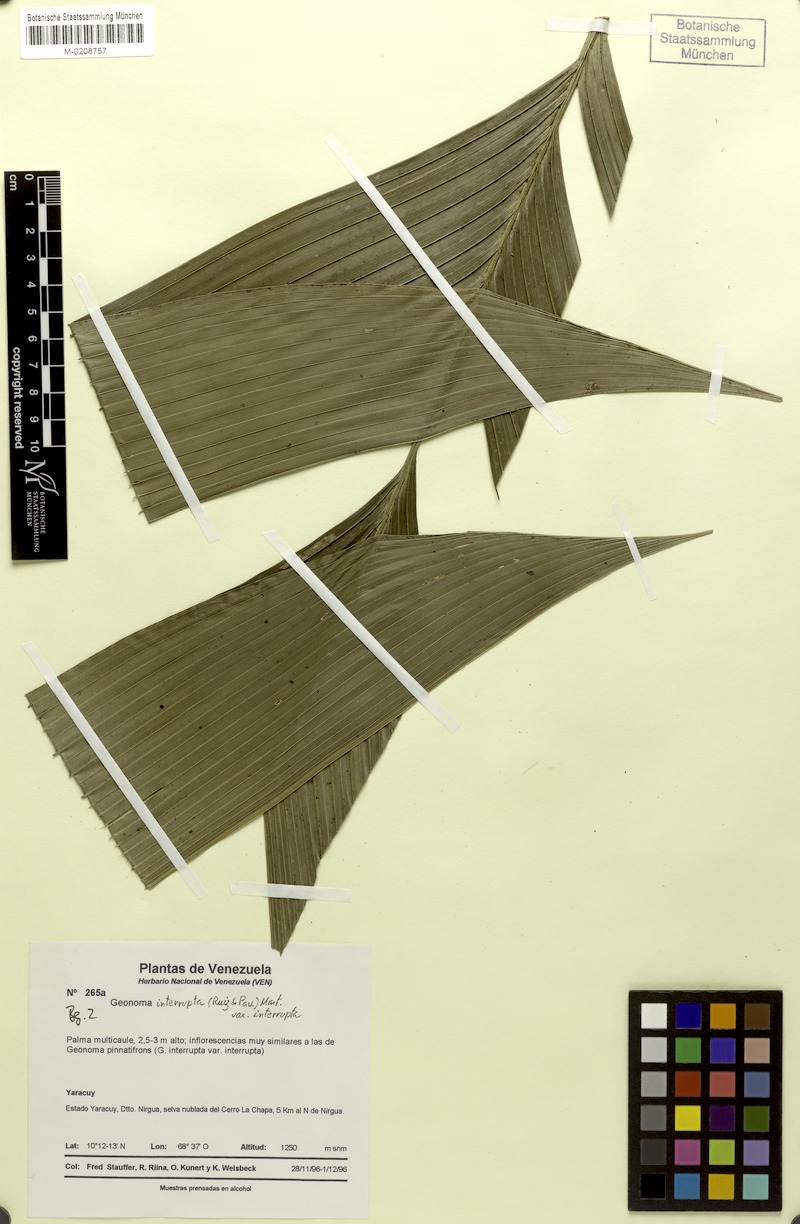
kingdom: Plantae
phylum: Tracheophyta
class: Liliopsida
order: Arecales
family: Arecaceae
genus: Geonoma
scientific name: Geonoma interrupta
